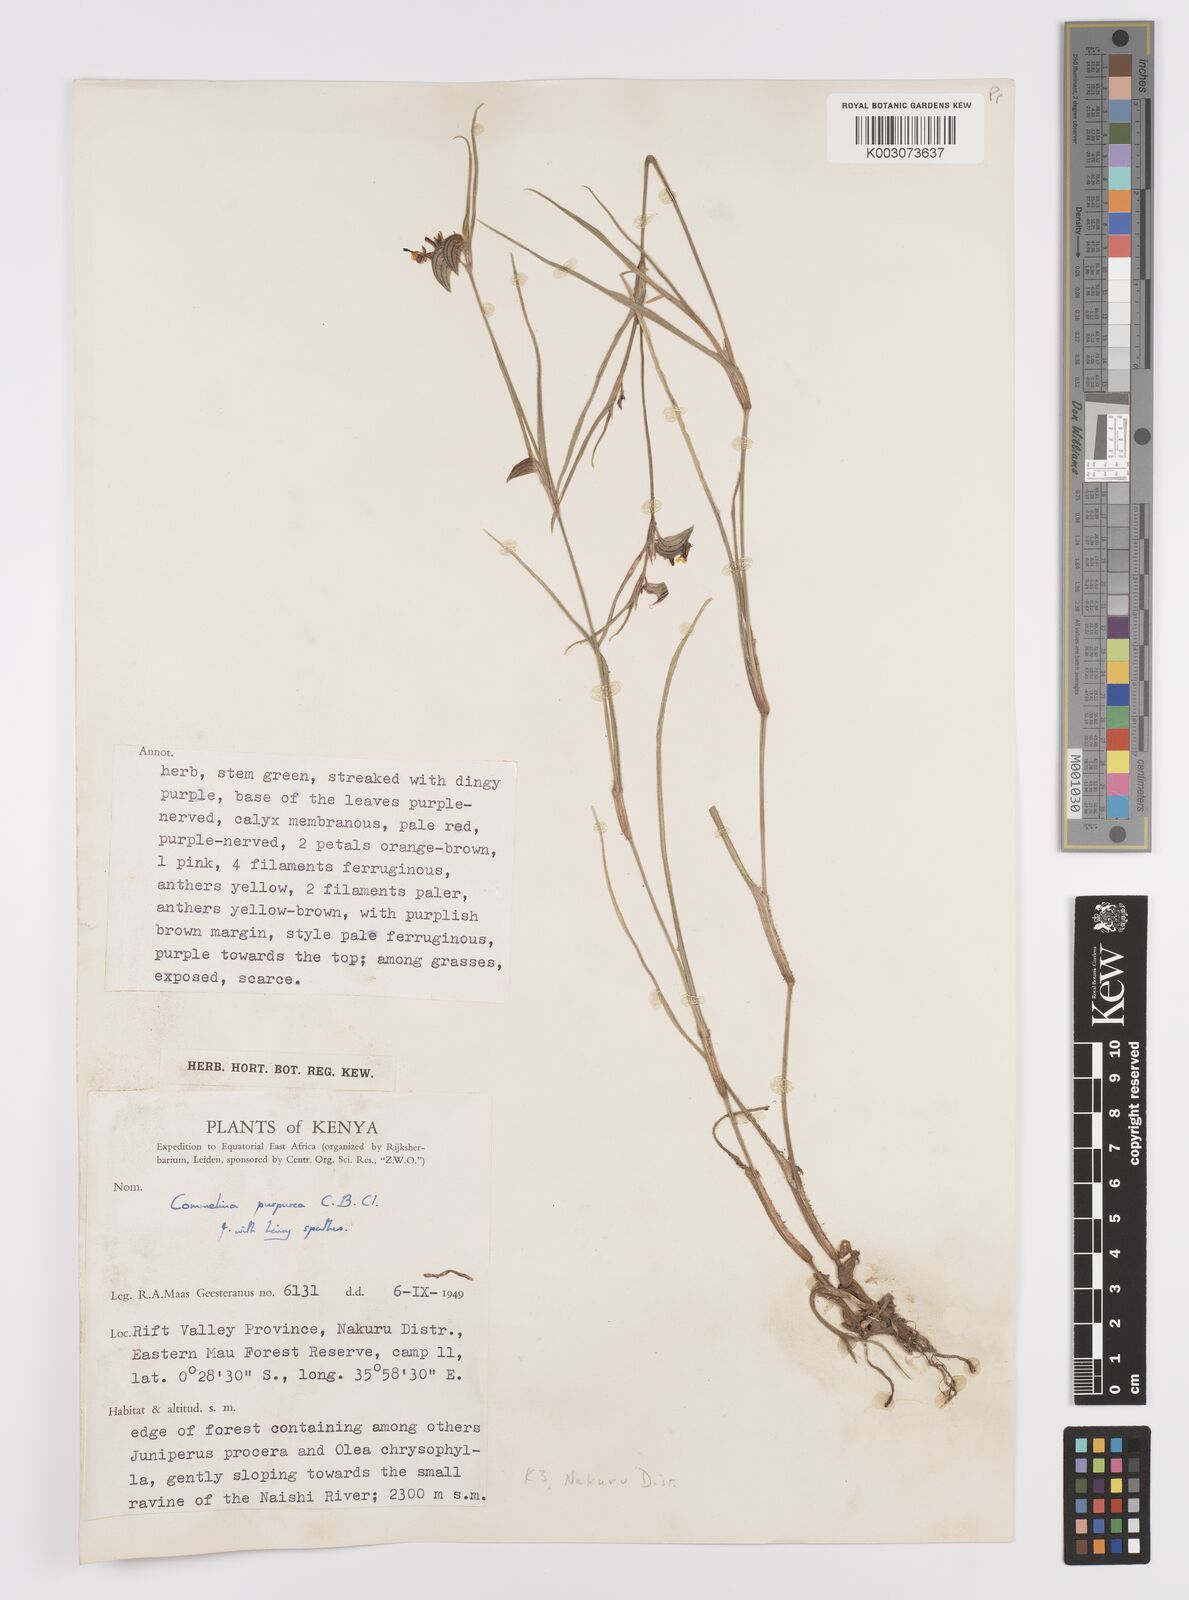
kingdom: Plantae
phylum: Tracheophyta
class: Liliopsida
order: Commelinales
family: Commelinaceae
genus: Commelina
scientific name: Commelina purpurea
